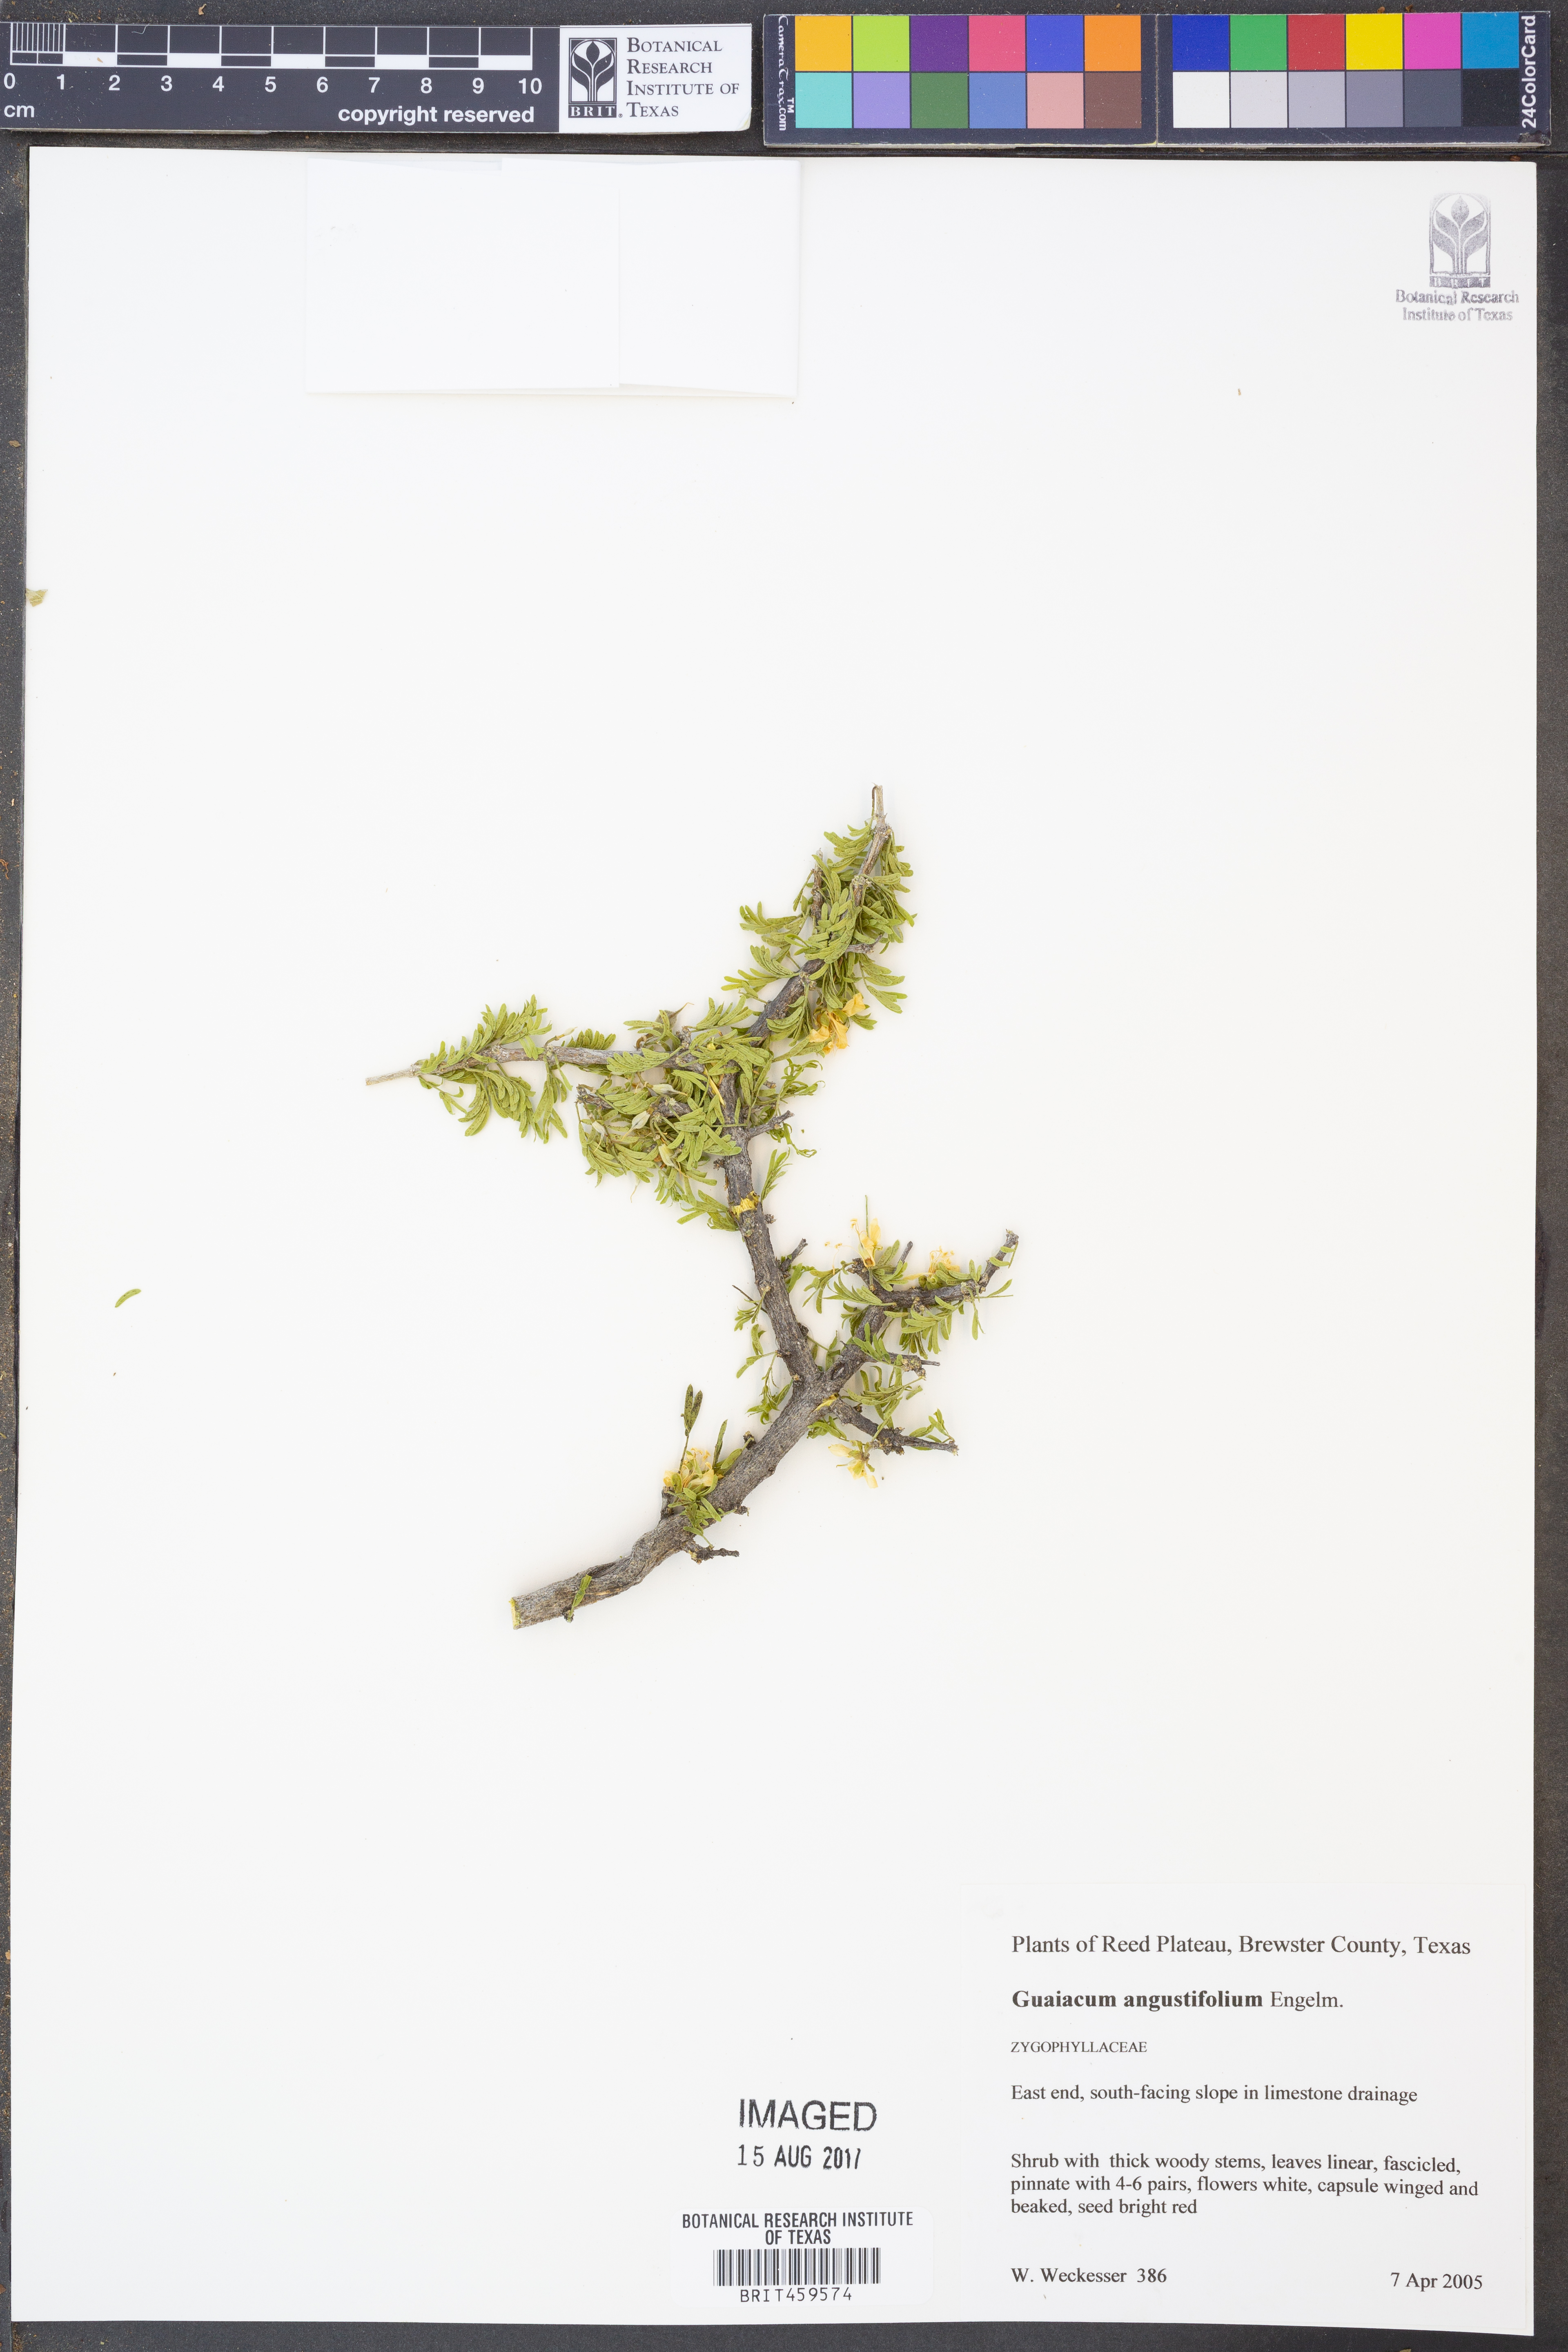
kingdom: Plantae
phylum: Tracheophyta
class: Magnoliopsida
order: Zygophyllales
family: Zygophyllaceae
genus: Porlieria
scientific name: Porlieria angustifolia
